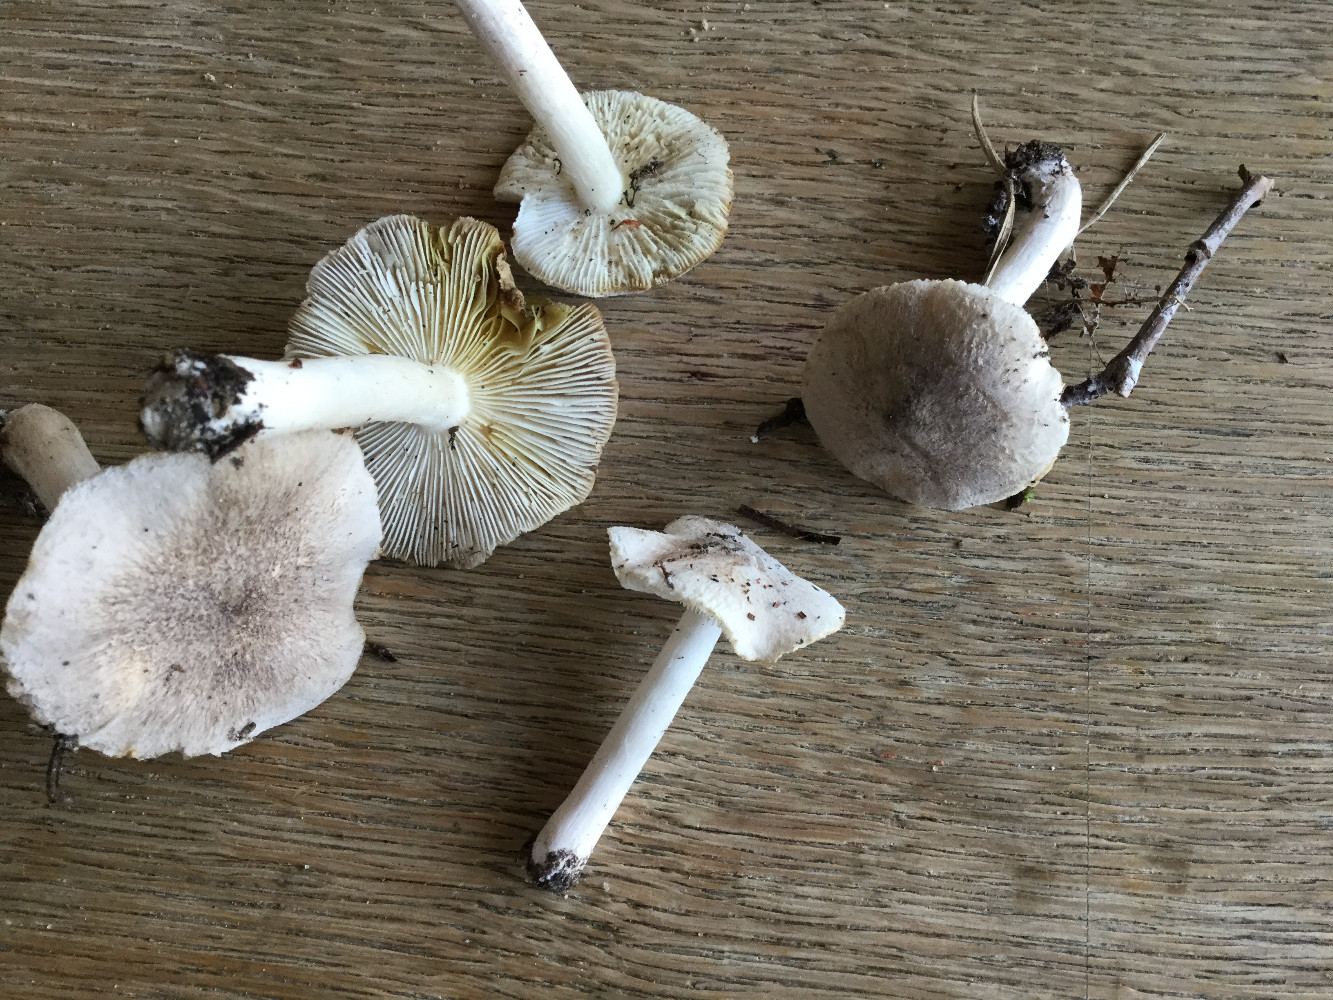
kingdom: Fungi
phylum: Basidiomycota
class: Agaricomycetes
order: Agaricales
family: Tricholomataceae
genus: Tricholoma
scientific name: Tricholoma scalpturatum
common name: gulplettet ridderhat
